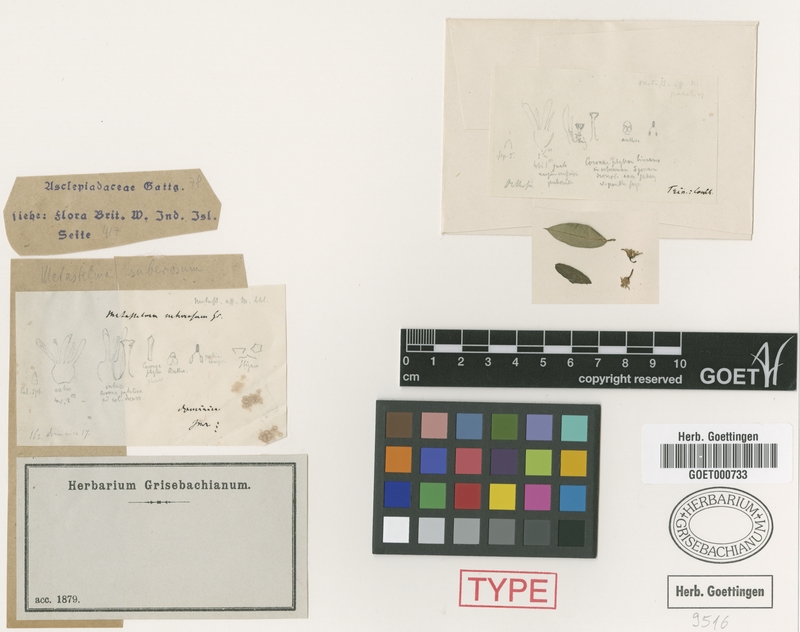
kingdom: Plantae
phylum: Tracheophyta
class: Magnoliopsida
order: Gentianales
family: Apocynaceae
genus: Metastelma
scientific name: Metastelma parviflorum
